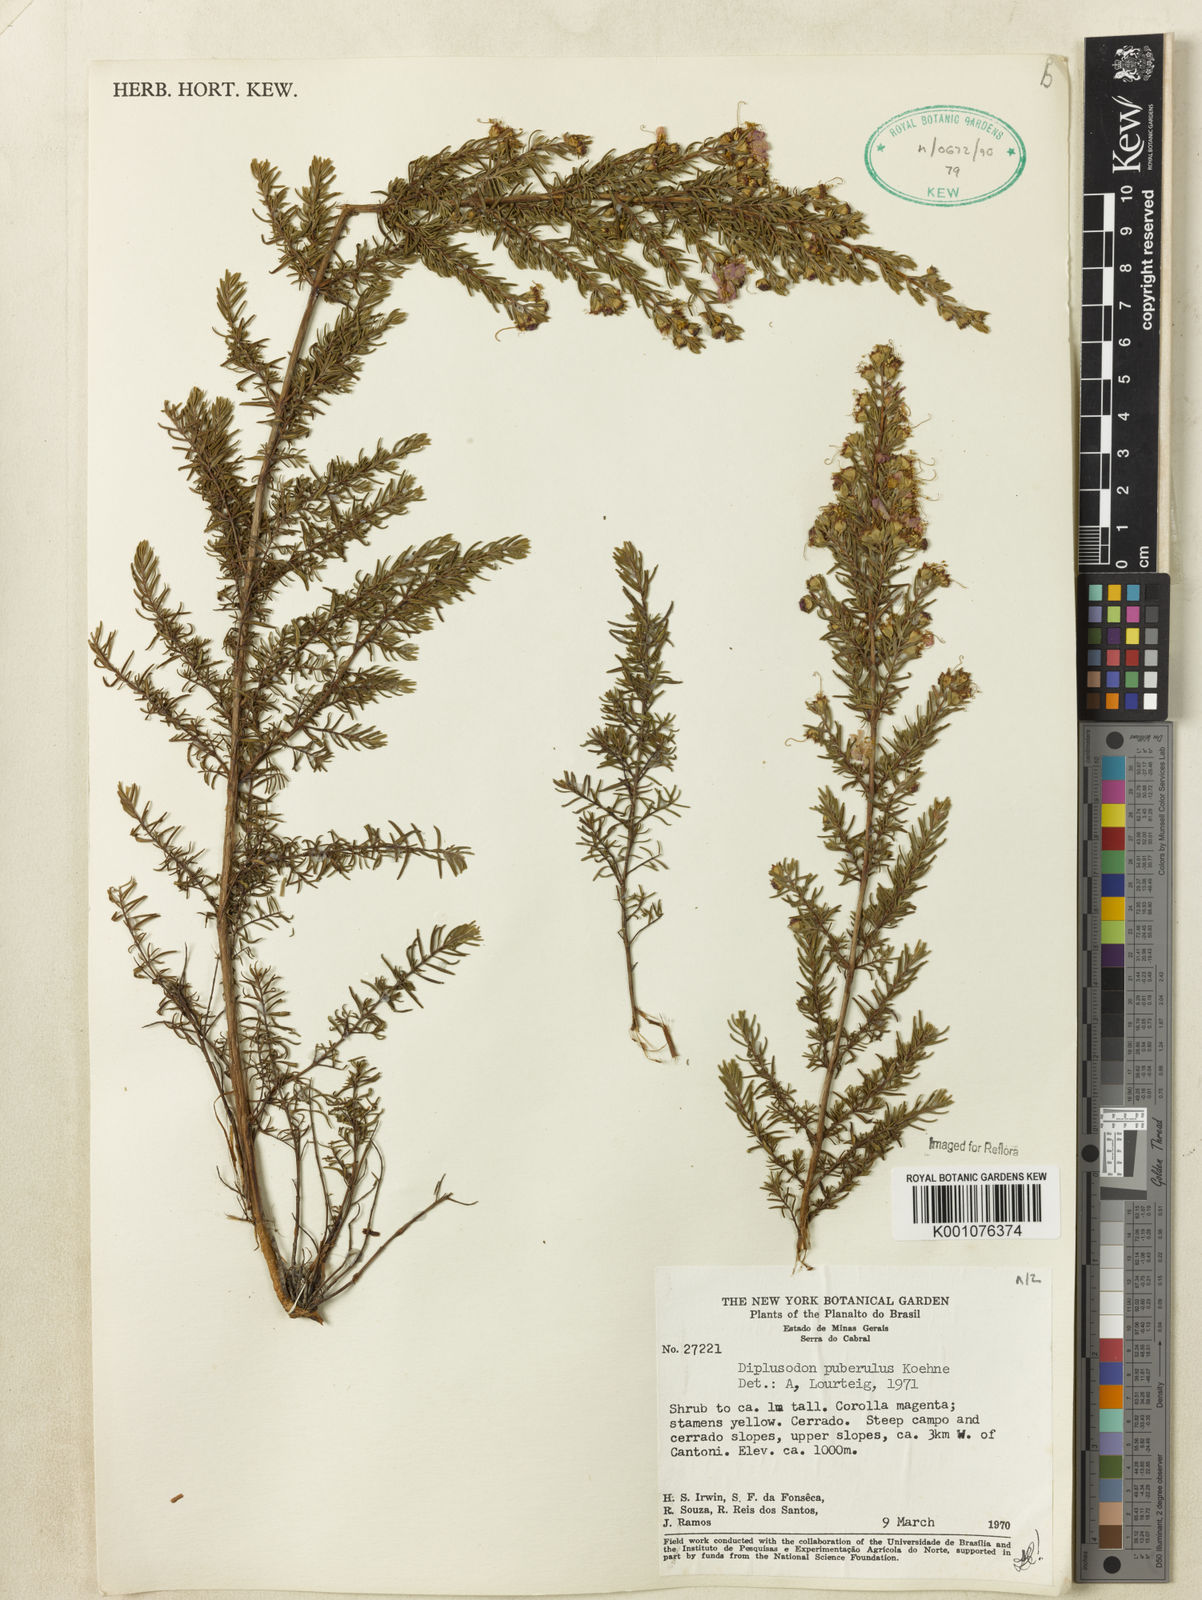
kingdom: Plantae
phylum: Tracheophyta
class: Magnoliopsida
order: Myrtales
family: Lythraceae
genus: Diplusodon
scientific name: Diplusodon puberulus
